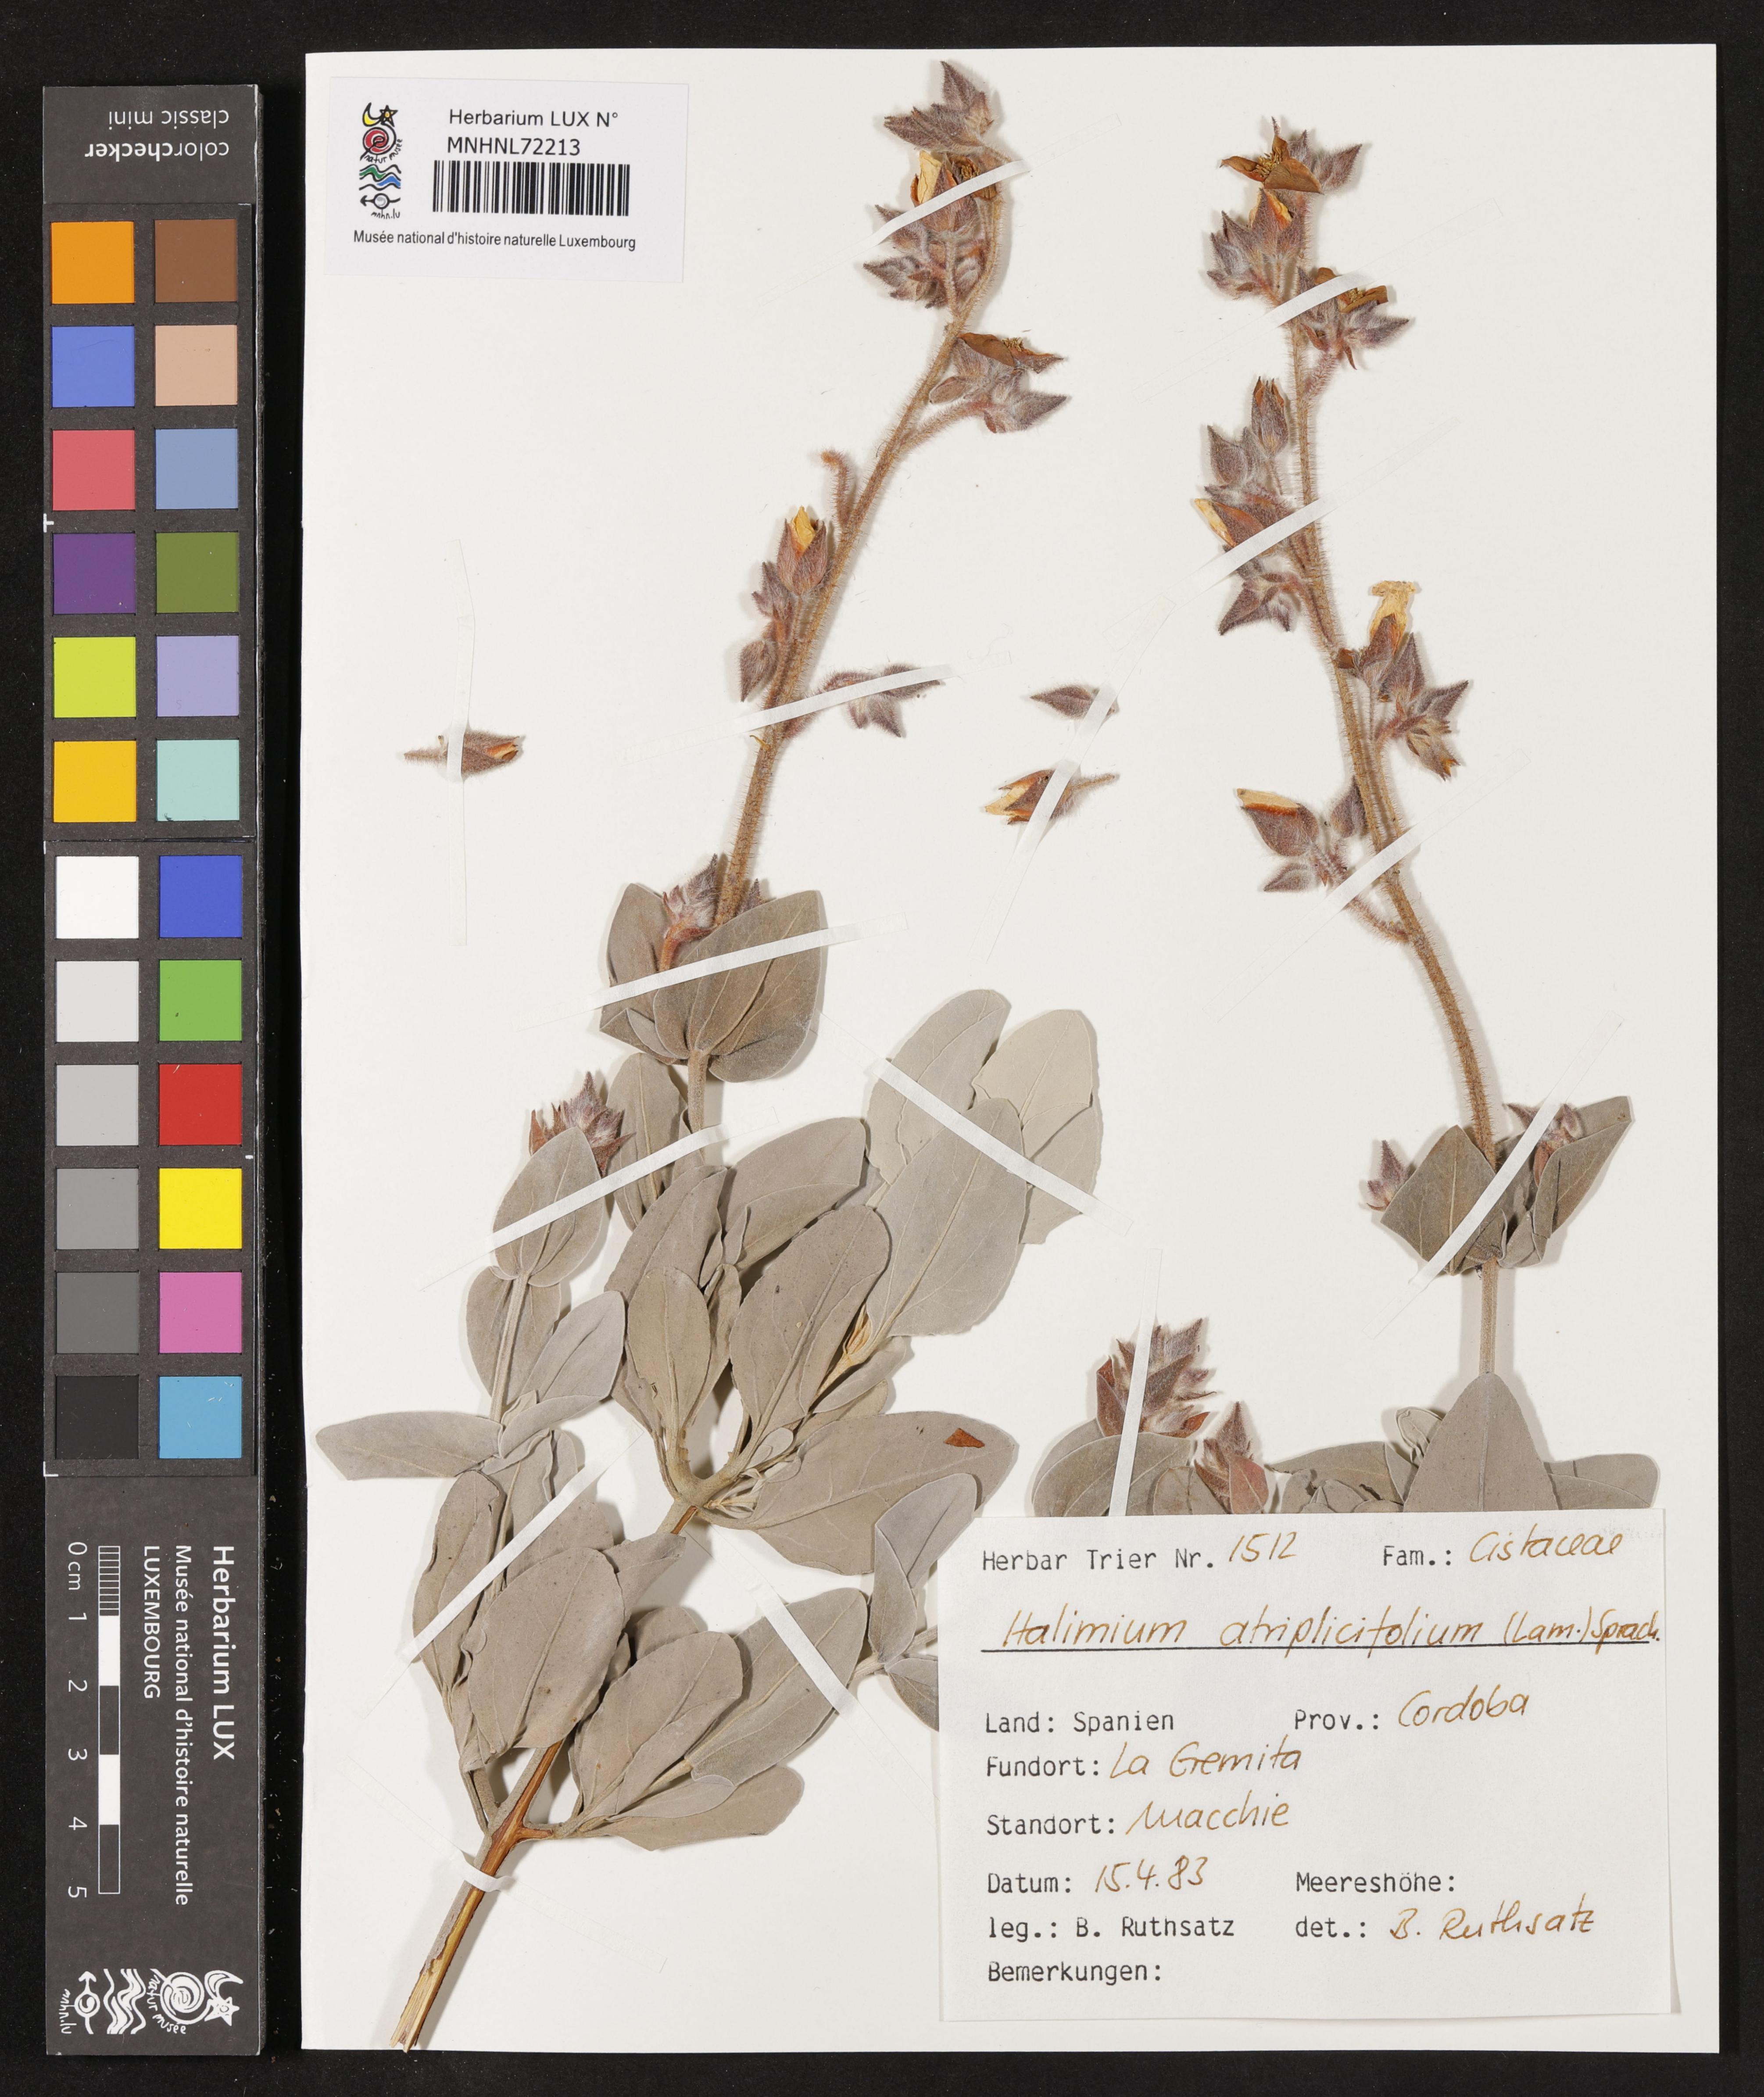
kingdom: Plantae
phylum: Tracheophyta
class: Magnoliopsida
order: Malvales
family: Cistaceae
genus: Halimium
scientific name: Halimium atriplicifolium
